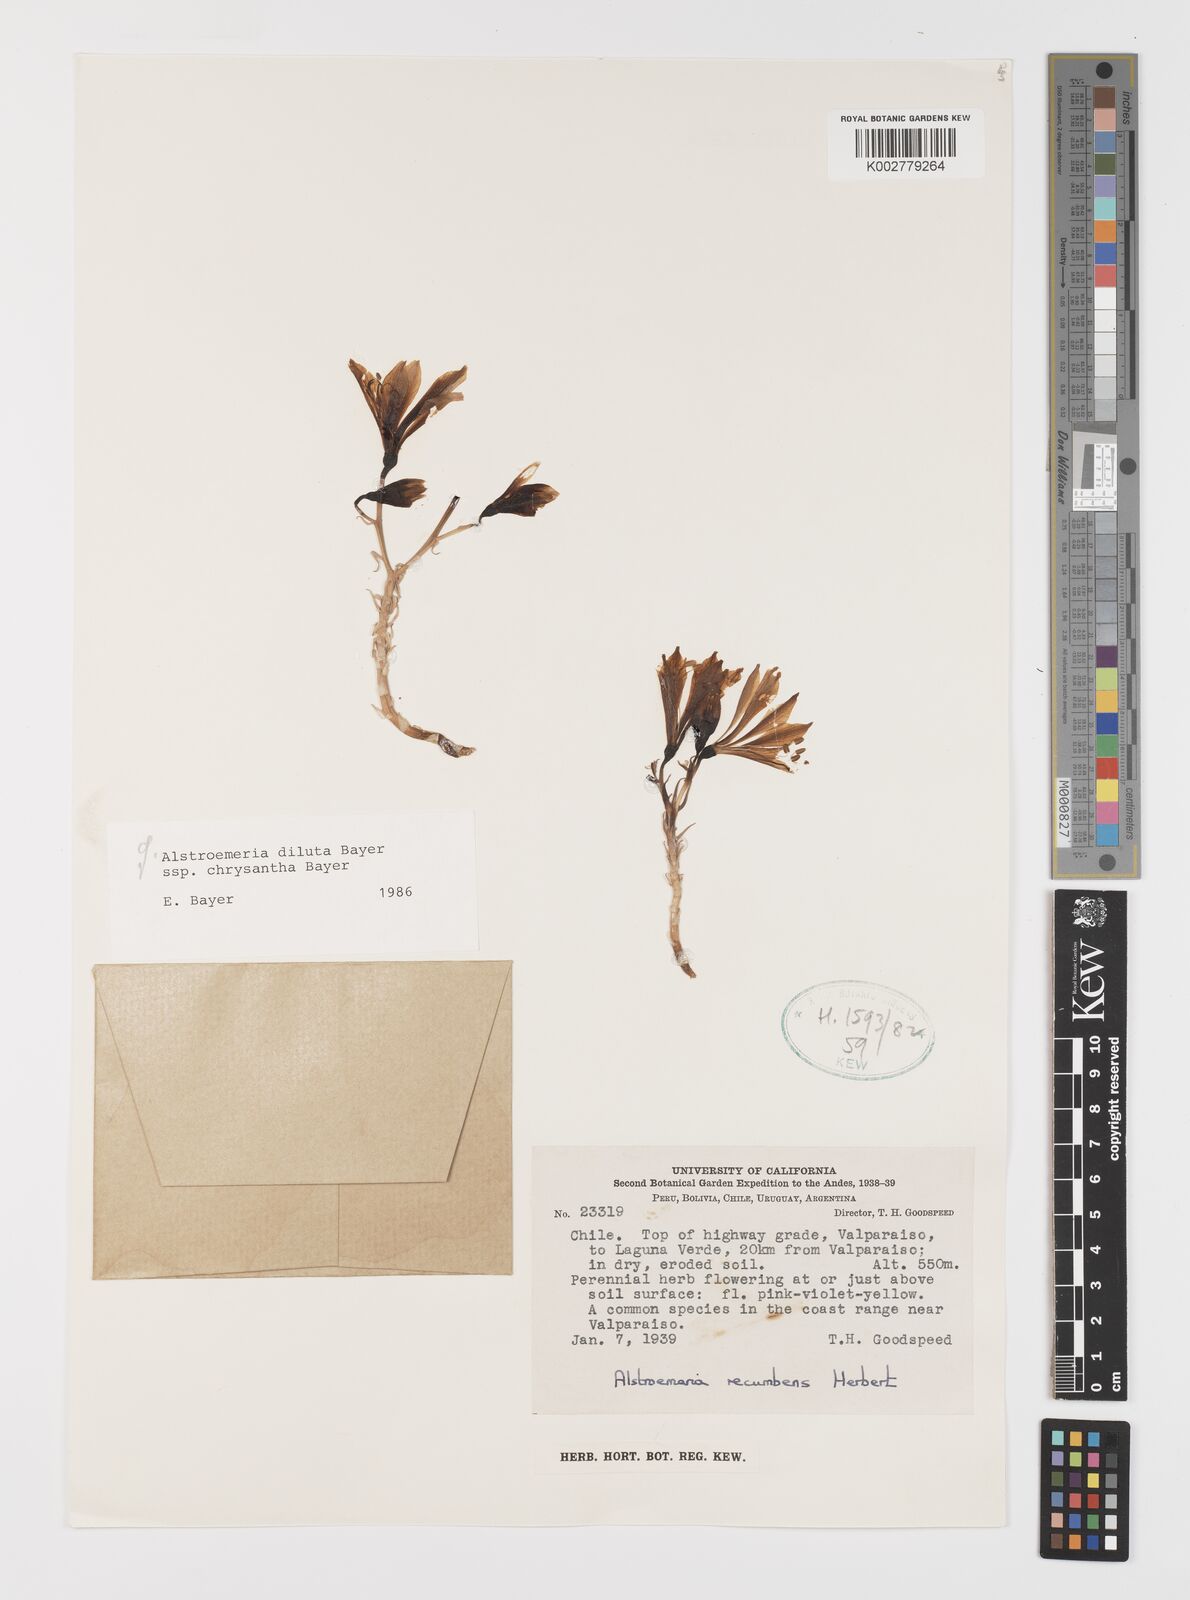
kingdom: Plantae
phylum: Tracheophyta
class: Liliopsida
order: Liliales
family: Alstroemeriaceae
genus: Alstroemeria
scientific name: Alstroemeria chrysantha
